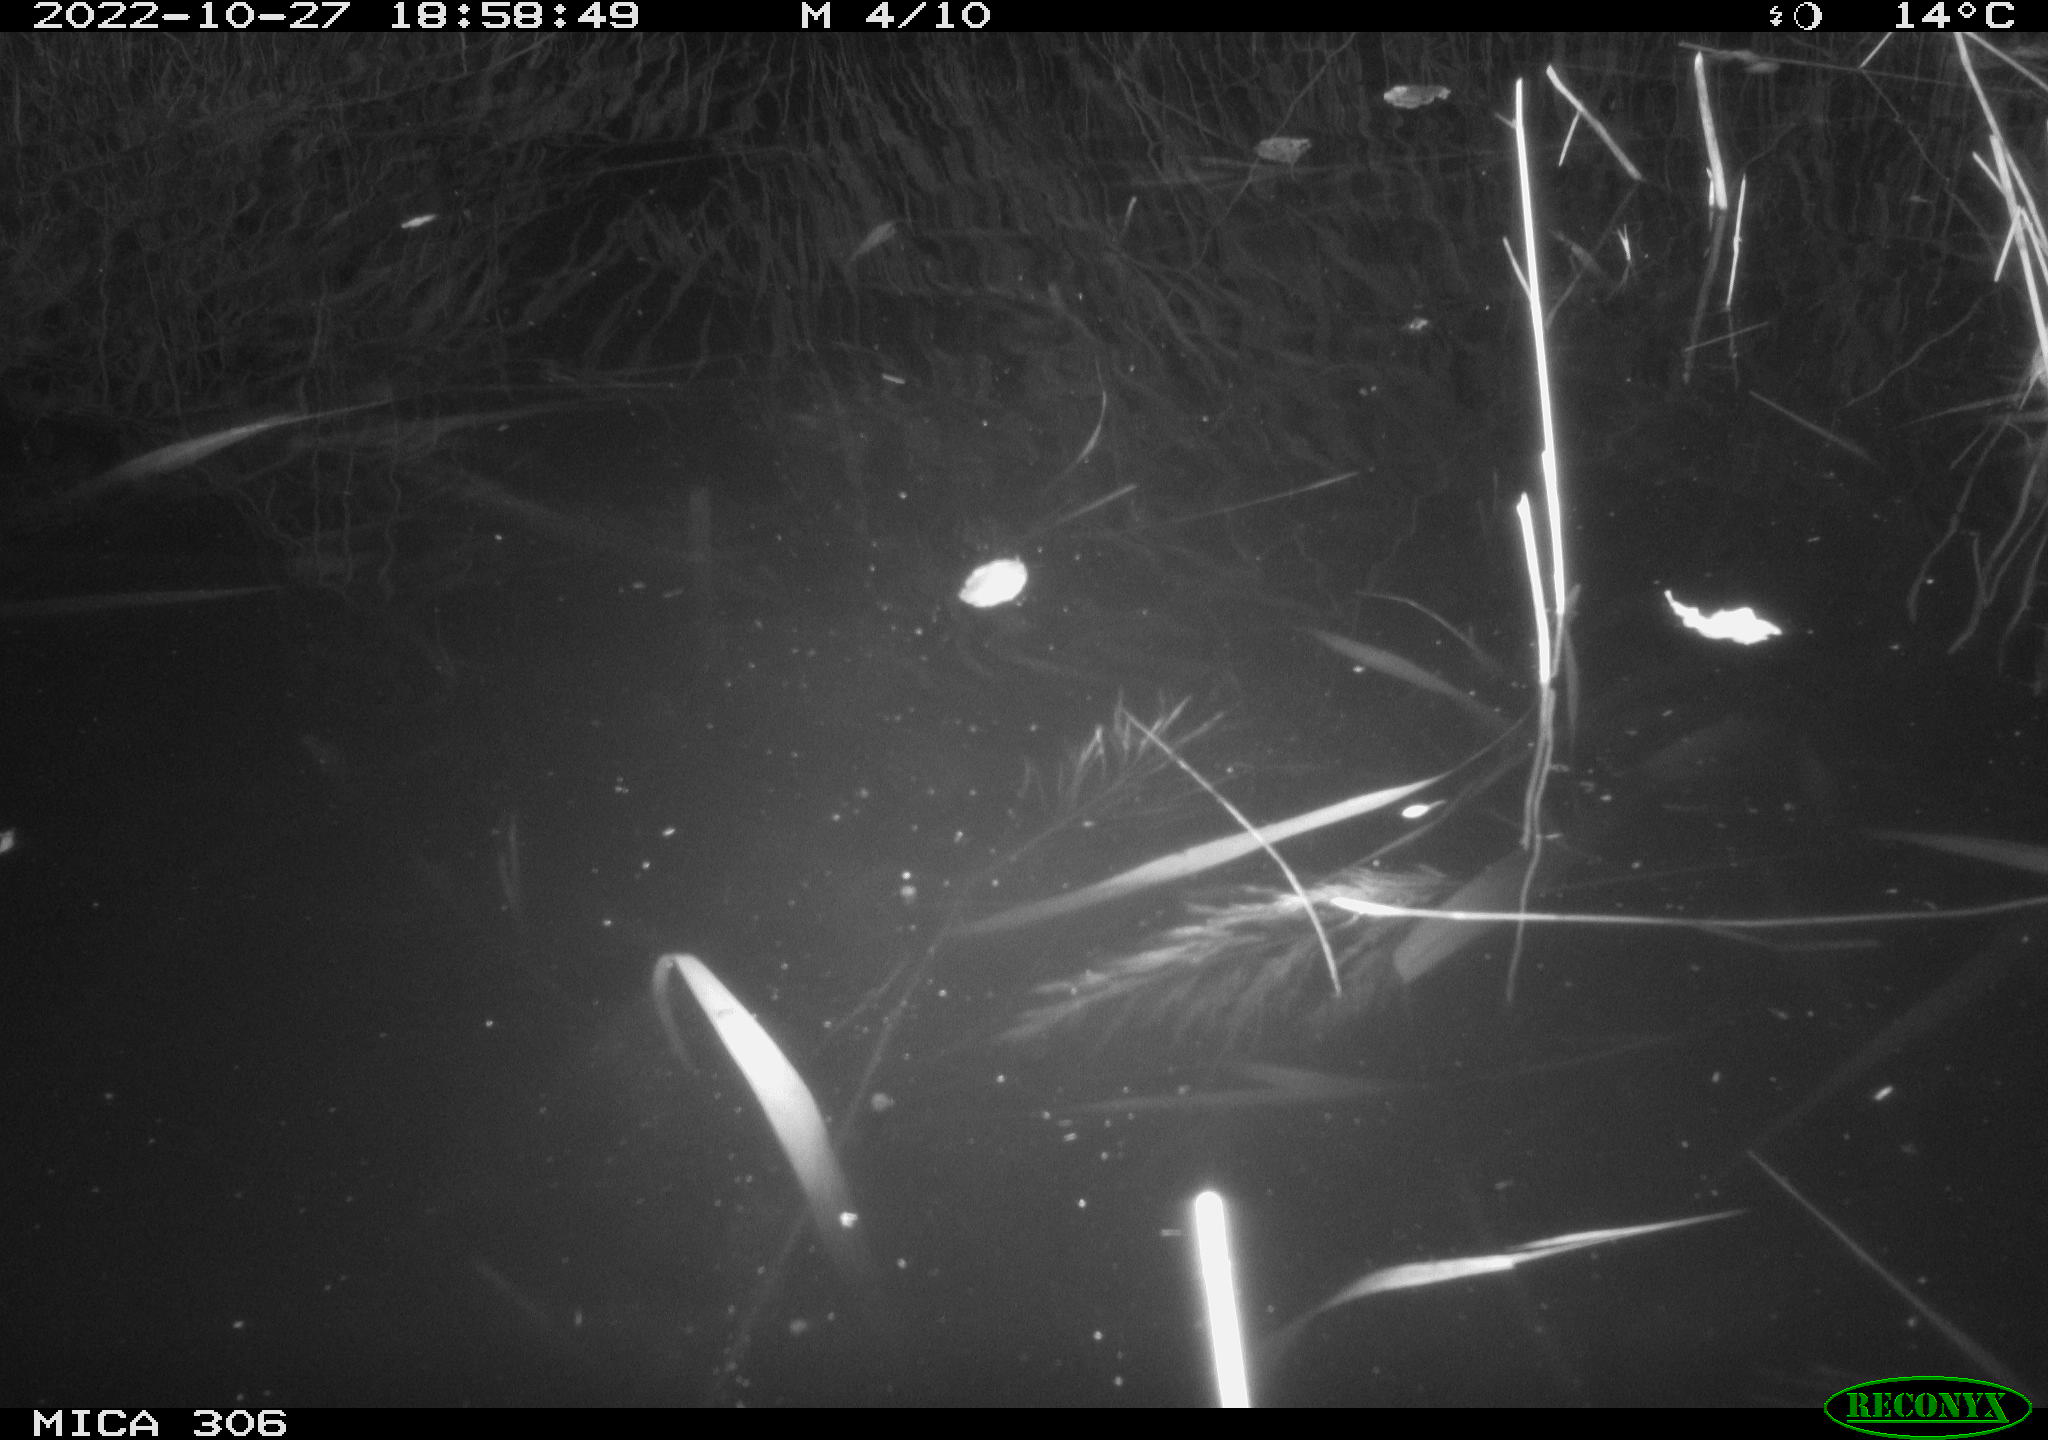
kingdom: Animalia
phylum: Chordata
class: Aves
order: Gruiformes
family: Rallidae
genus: Gallinula
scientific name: Gallinula chloropus
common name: Common moorhen
